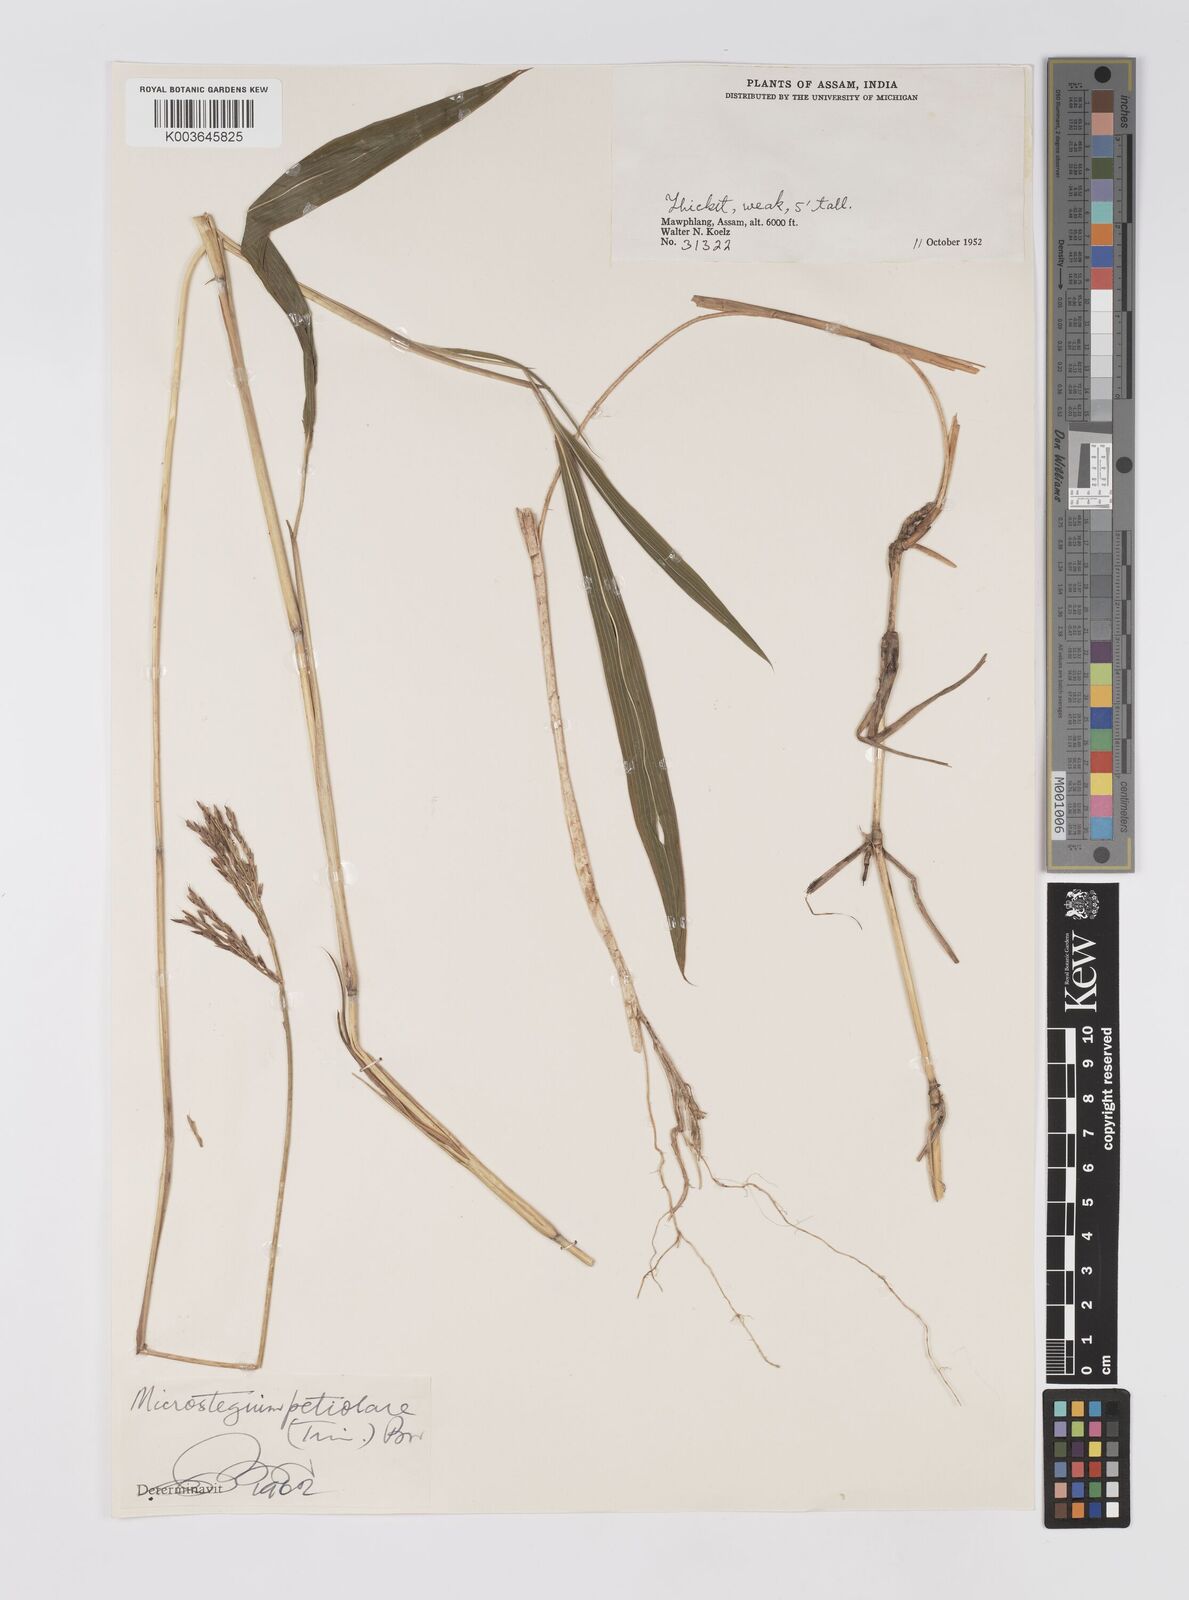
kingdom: Plantae
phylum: Tracheophyta
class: Liliopsida
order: Poales
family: Poaceae
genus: Microstegium
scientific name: Microstegium petiolare
